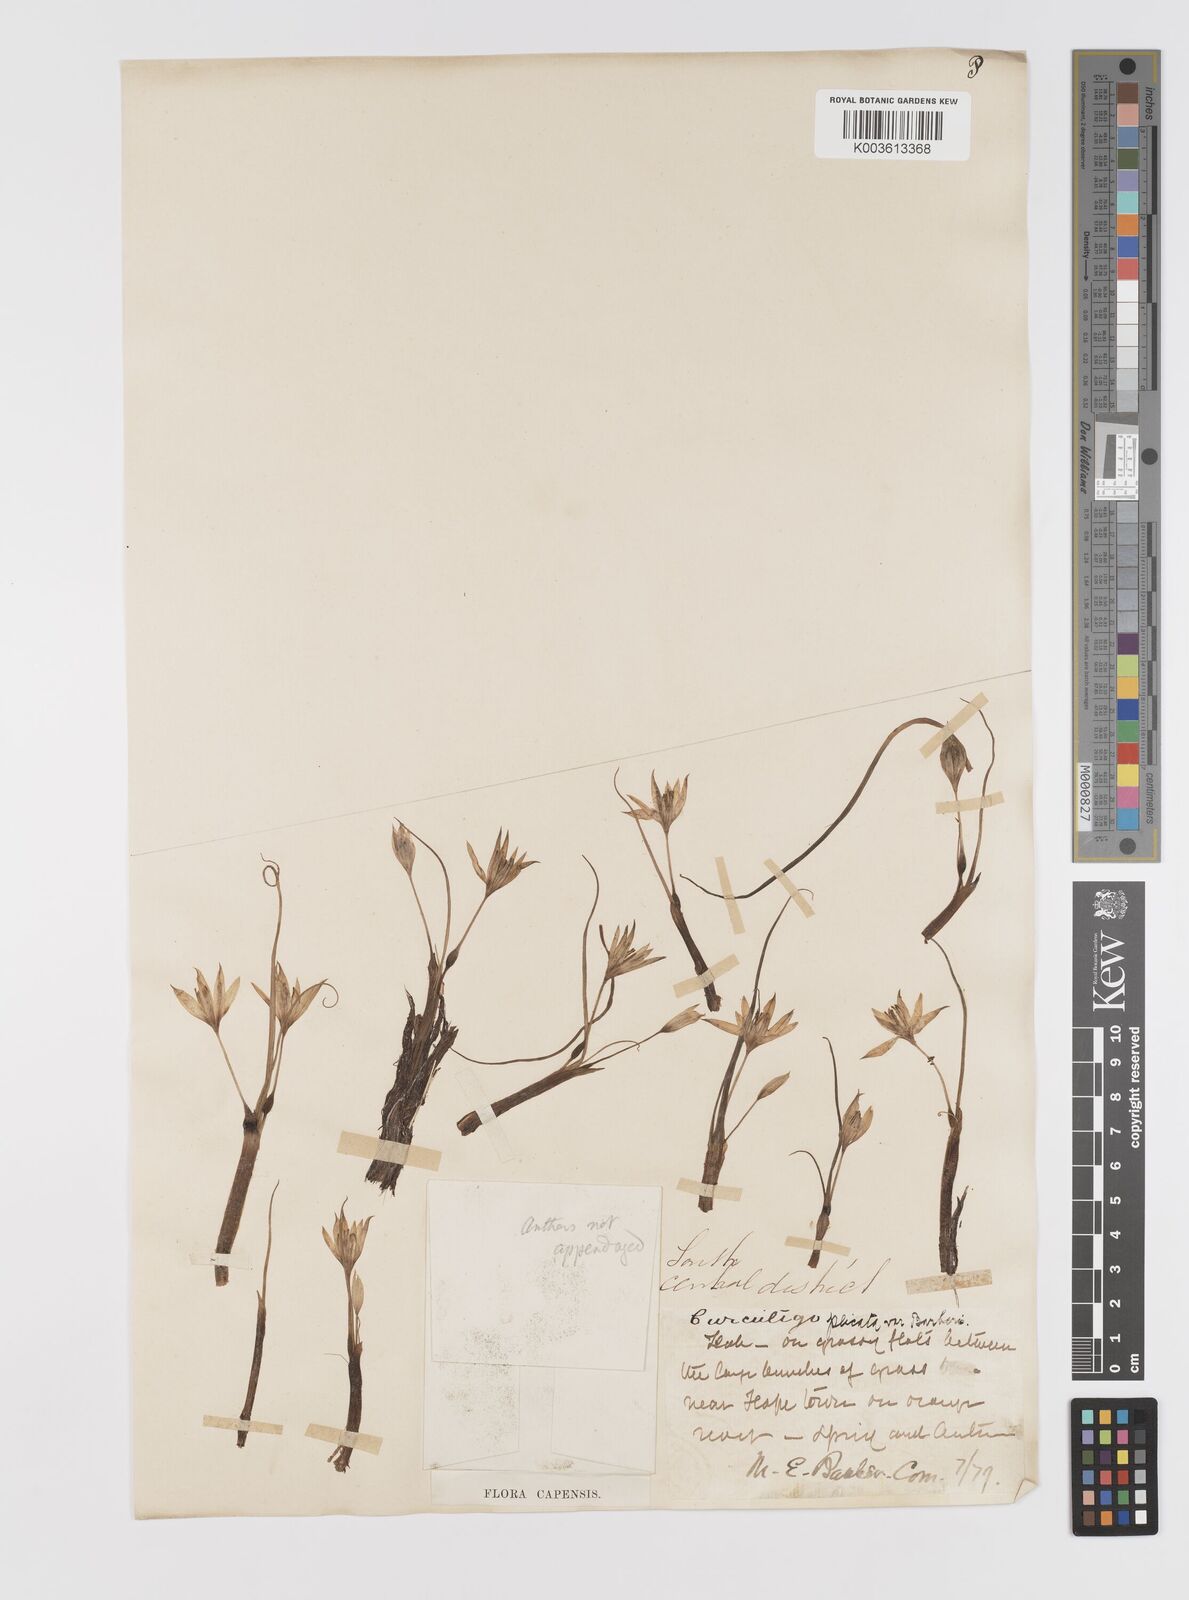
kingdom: Plantae
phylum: Tracheophyta
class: Liliopsida
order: Asparagales
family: Hypoxidaceae
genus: Empodium
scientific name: Empodium
